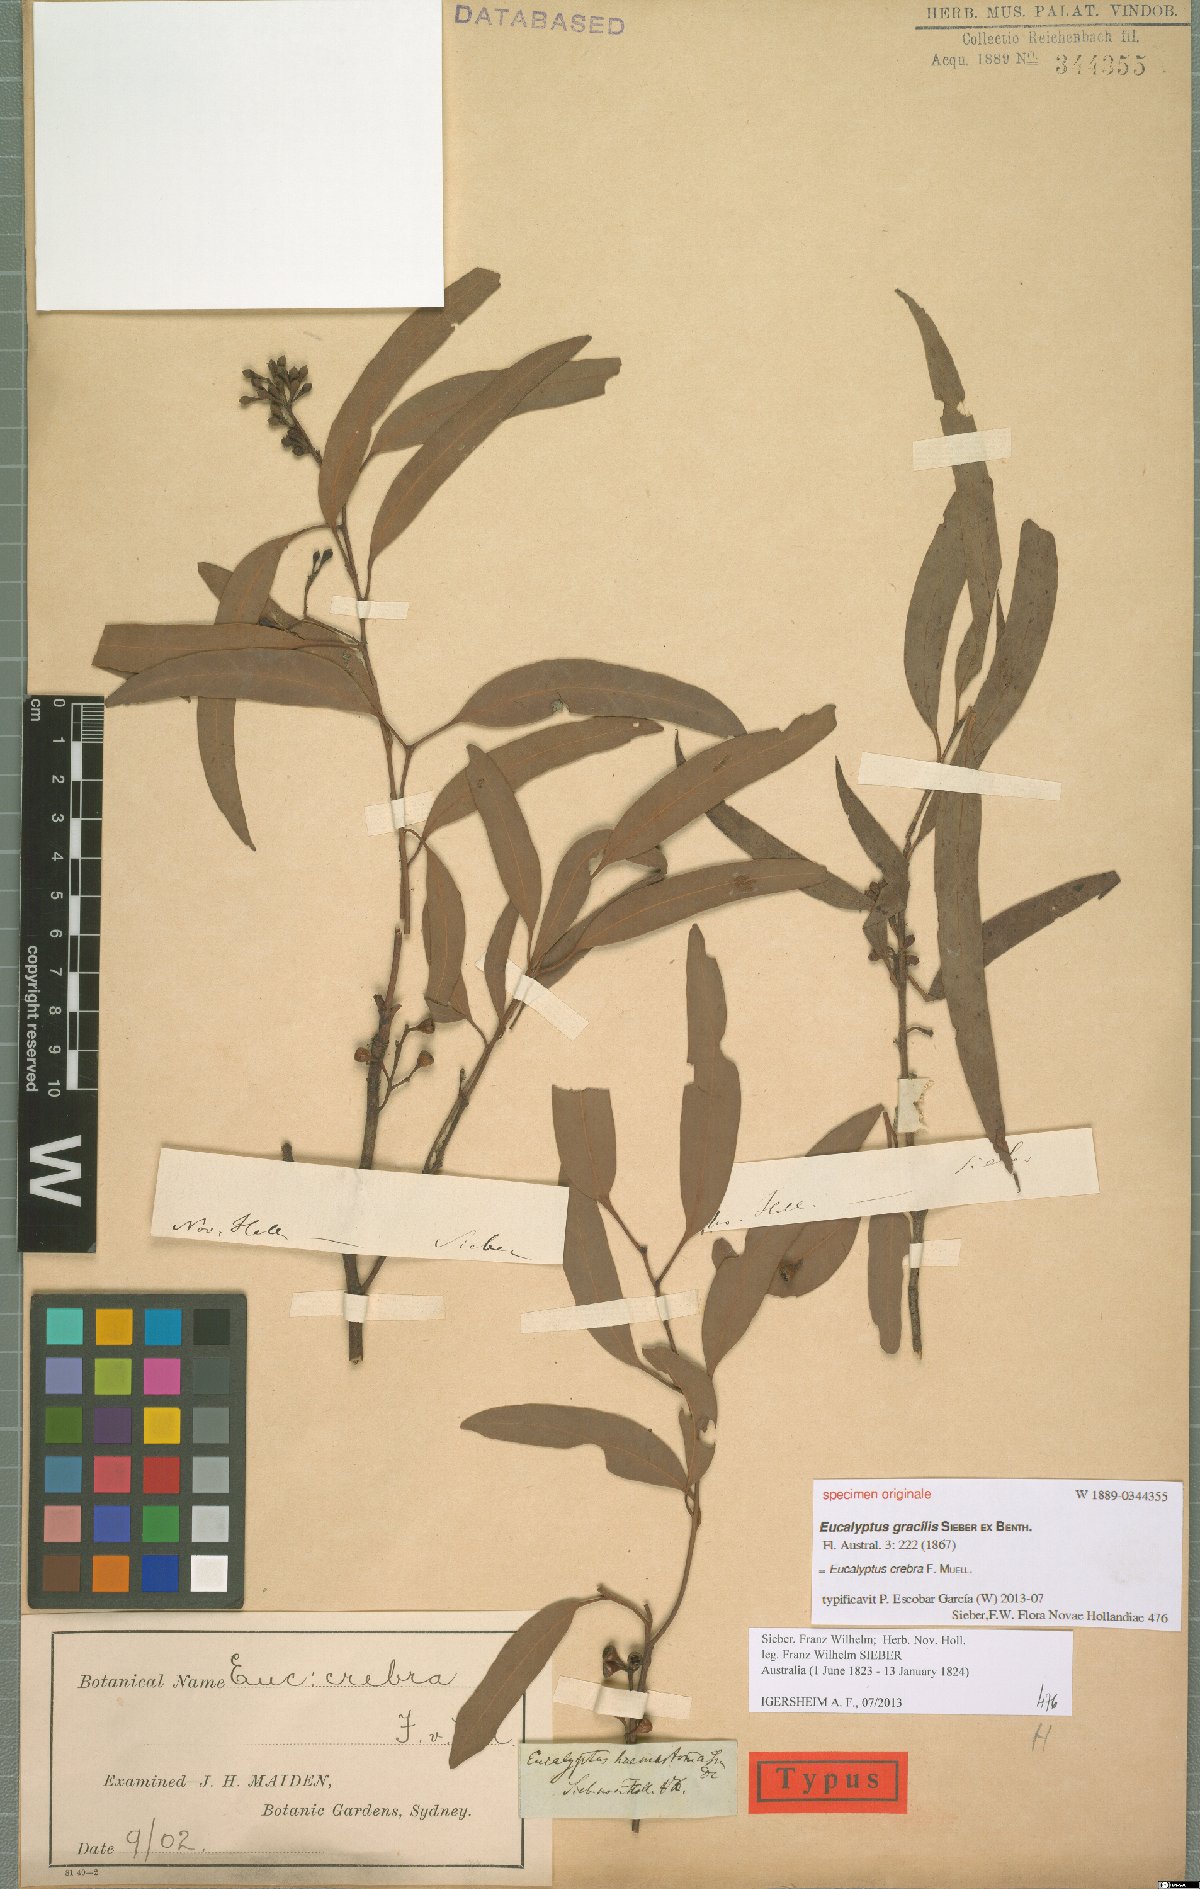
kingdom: Plantae
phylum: Tracheophyta
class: Magnoliopsida
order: Myrtales
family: Myrtaceae
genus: Eucalyptus
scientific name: Eucalyptus crebra
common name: Narrowleaf red ironbark
